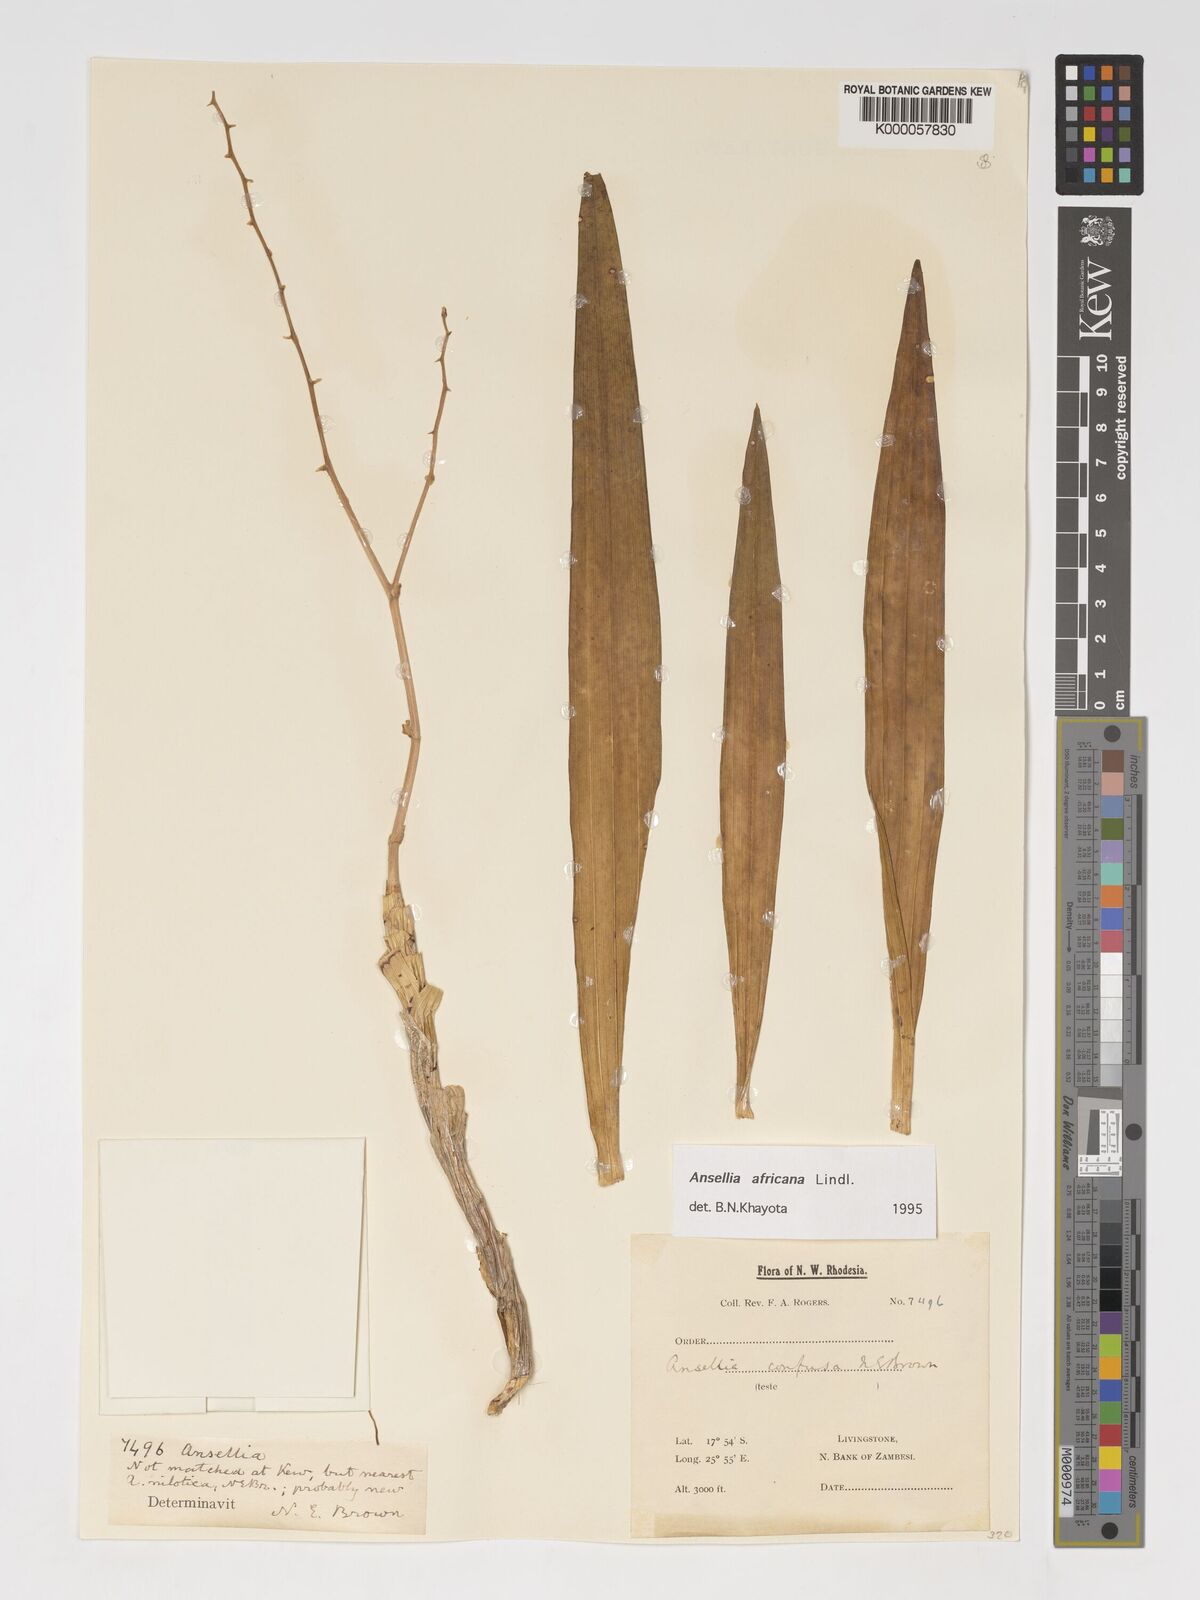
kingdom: Plantae
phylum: Tracheophyta
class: Liliopsida
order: Asparagales
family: Orchidaceae
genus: Ansellia
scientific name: Ansellia africana
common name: African ansellia
